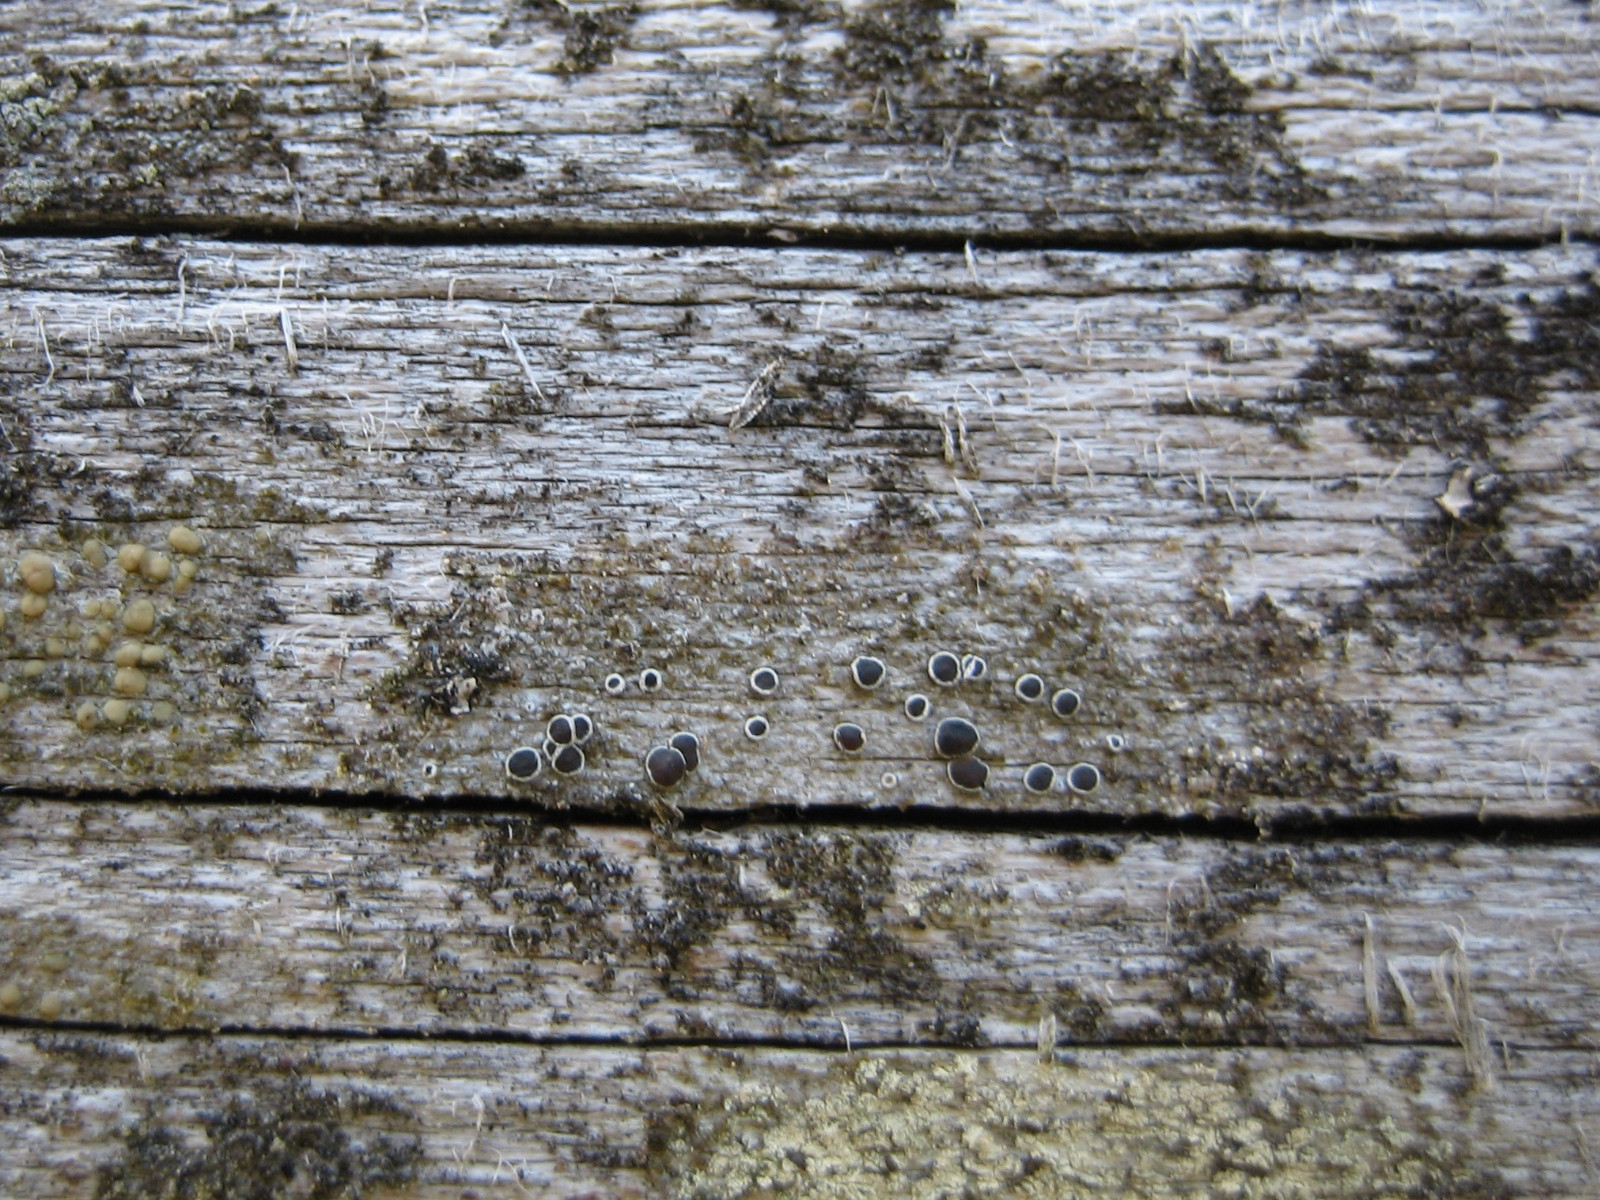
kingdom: Fungi
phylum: Ascomycota
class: Lecanoromycetes
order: Lecanorales
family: Lecanoraceae
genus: Lecanora
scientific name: Lecanora pulicaris
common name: almindelig kantskivelav
